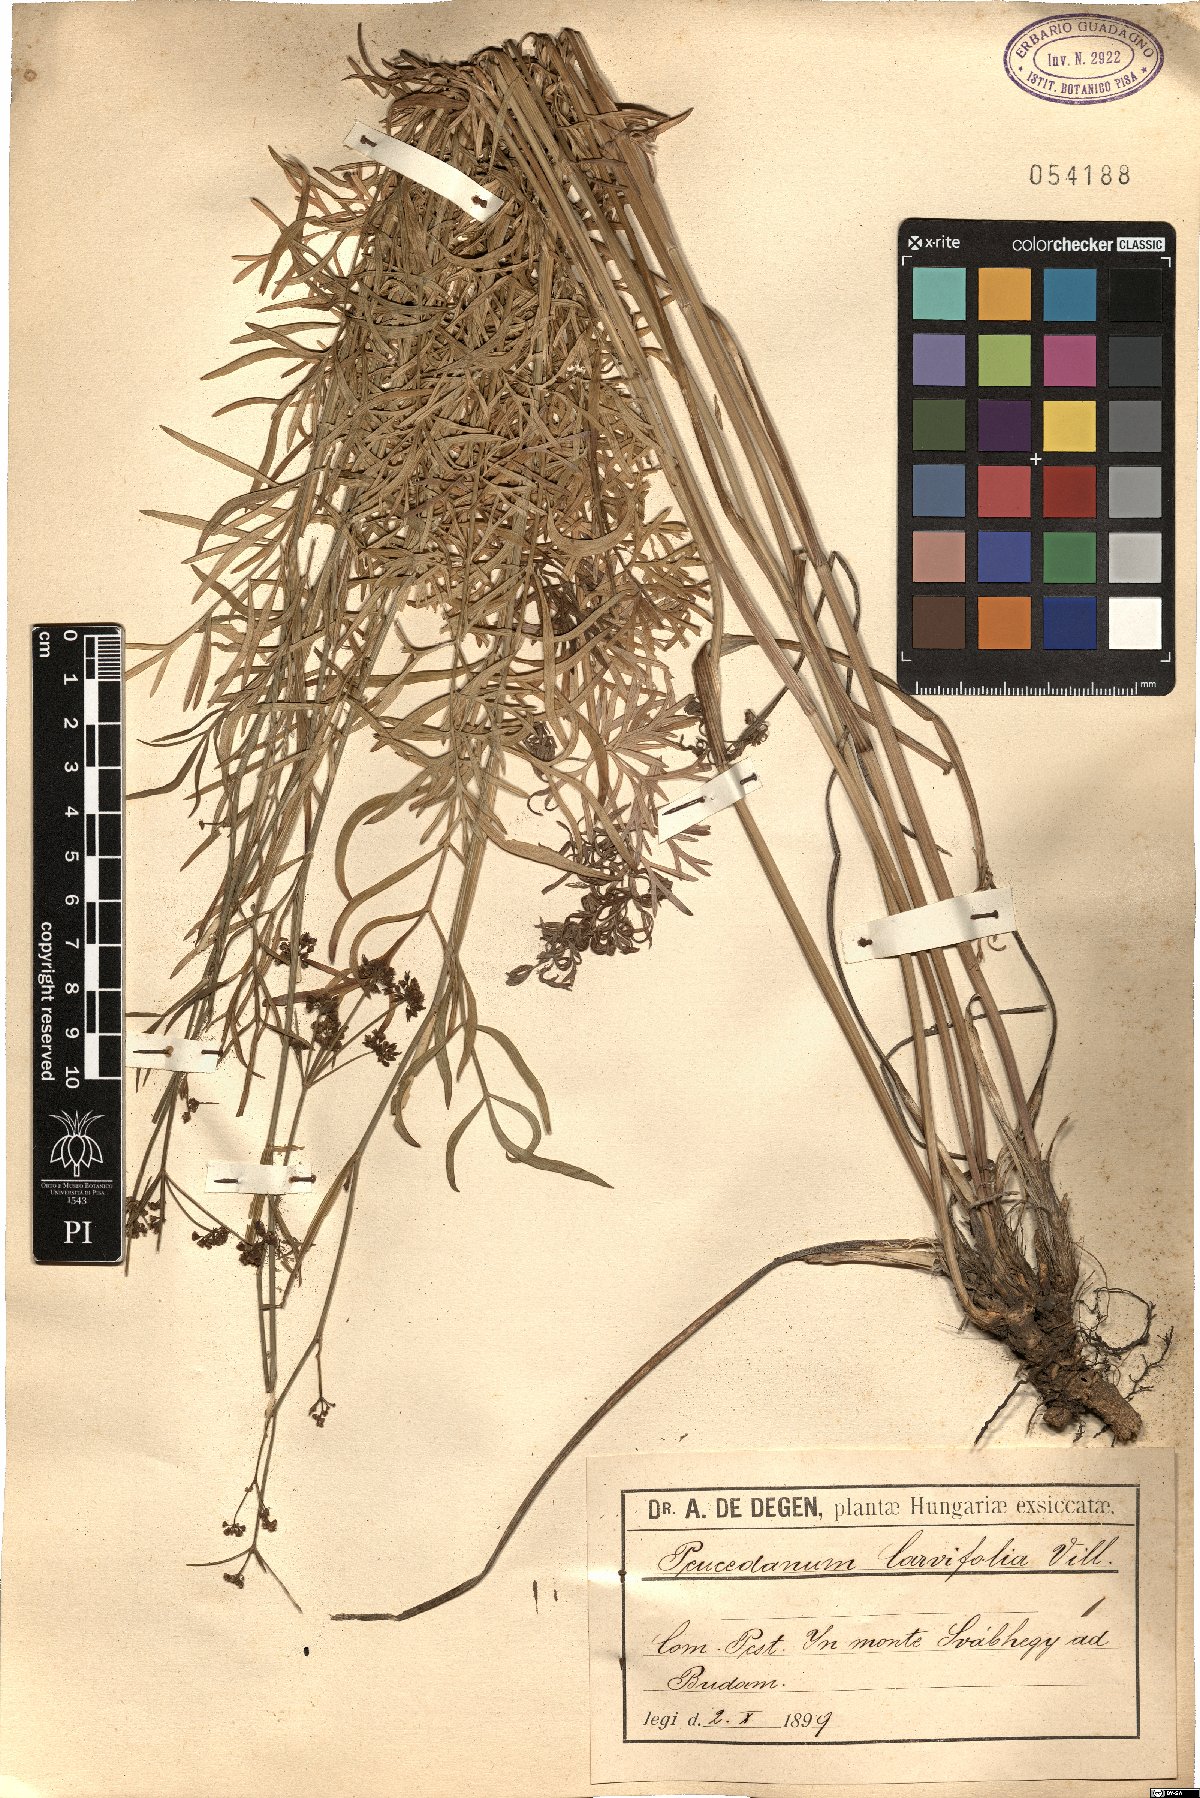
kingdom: Plantae
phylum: Tracheophyta
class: Magnoliopsida
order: Apiales
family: Apiaceae
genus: Dichoropetalum
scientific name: Dichoropetalum carvifolia
